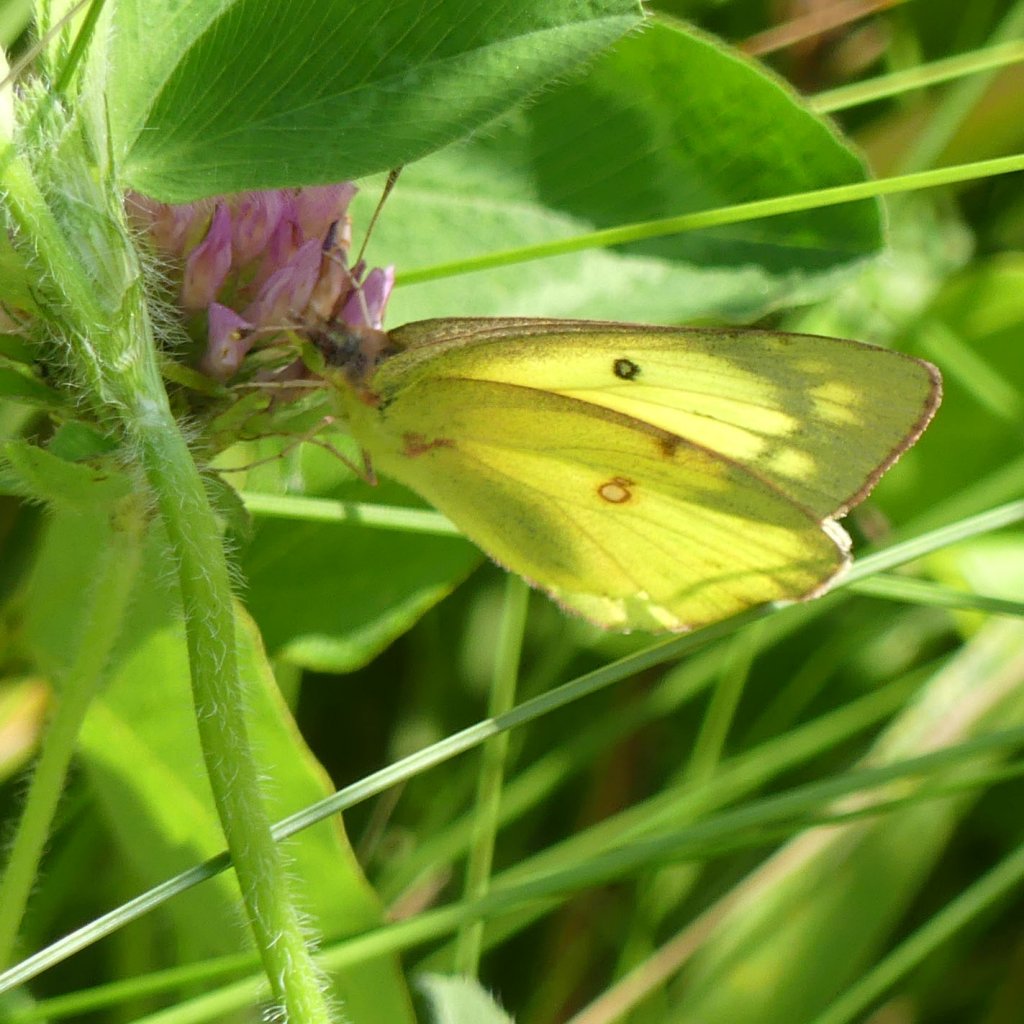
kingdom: Animalia
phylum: Arthropoda
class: Insecta
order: Lepidoptera
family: Pieridae
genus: Colias
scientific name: Colias philodice
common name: Clouded Sulphur
